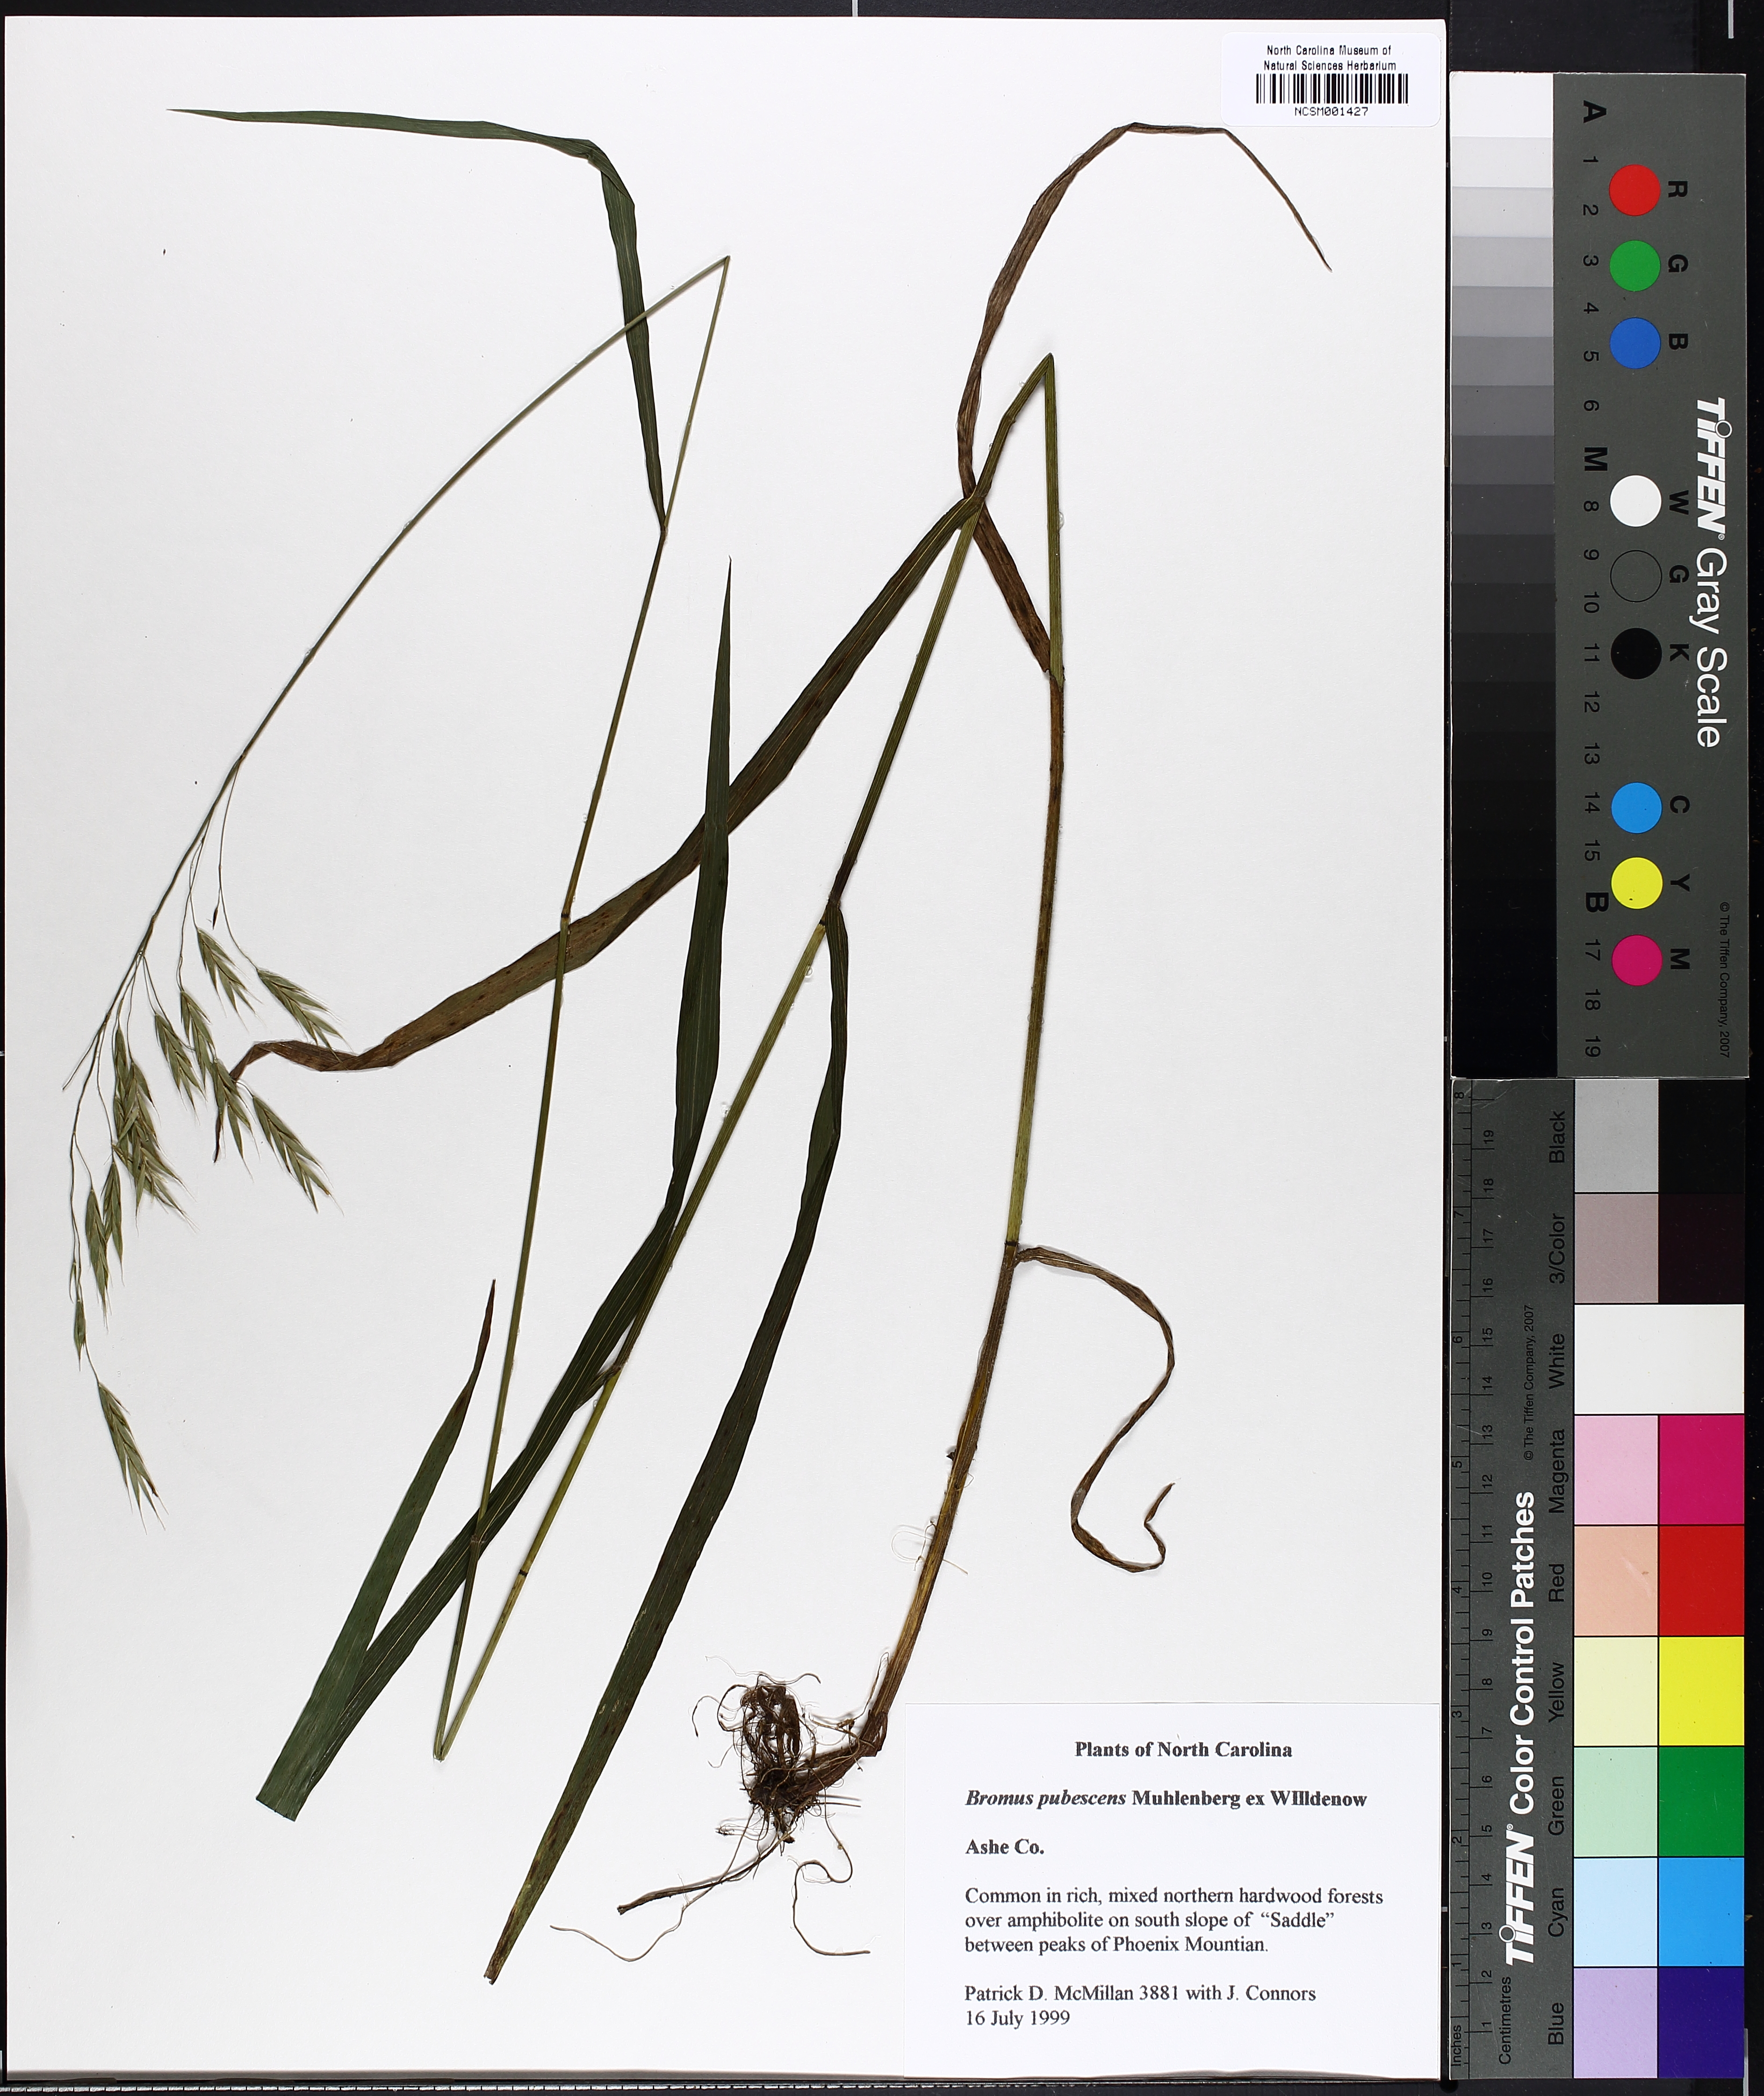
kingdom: Plantae
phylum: Tracheophyta
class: Liliopsida
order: Poales
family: Poaceae
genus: Bromus
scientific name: Bromus pubescens
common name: Hairy wood brome grass
